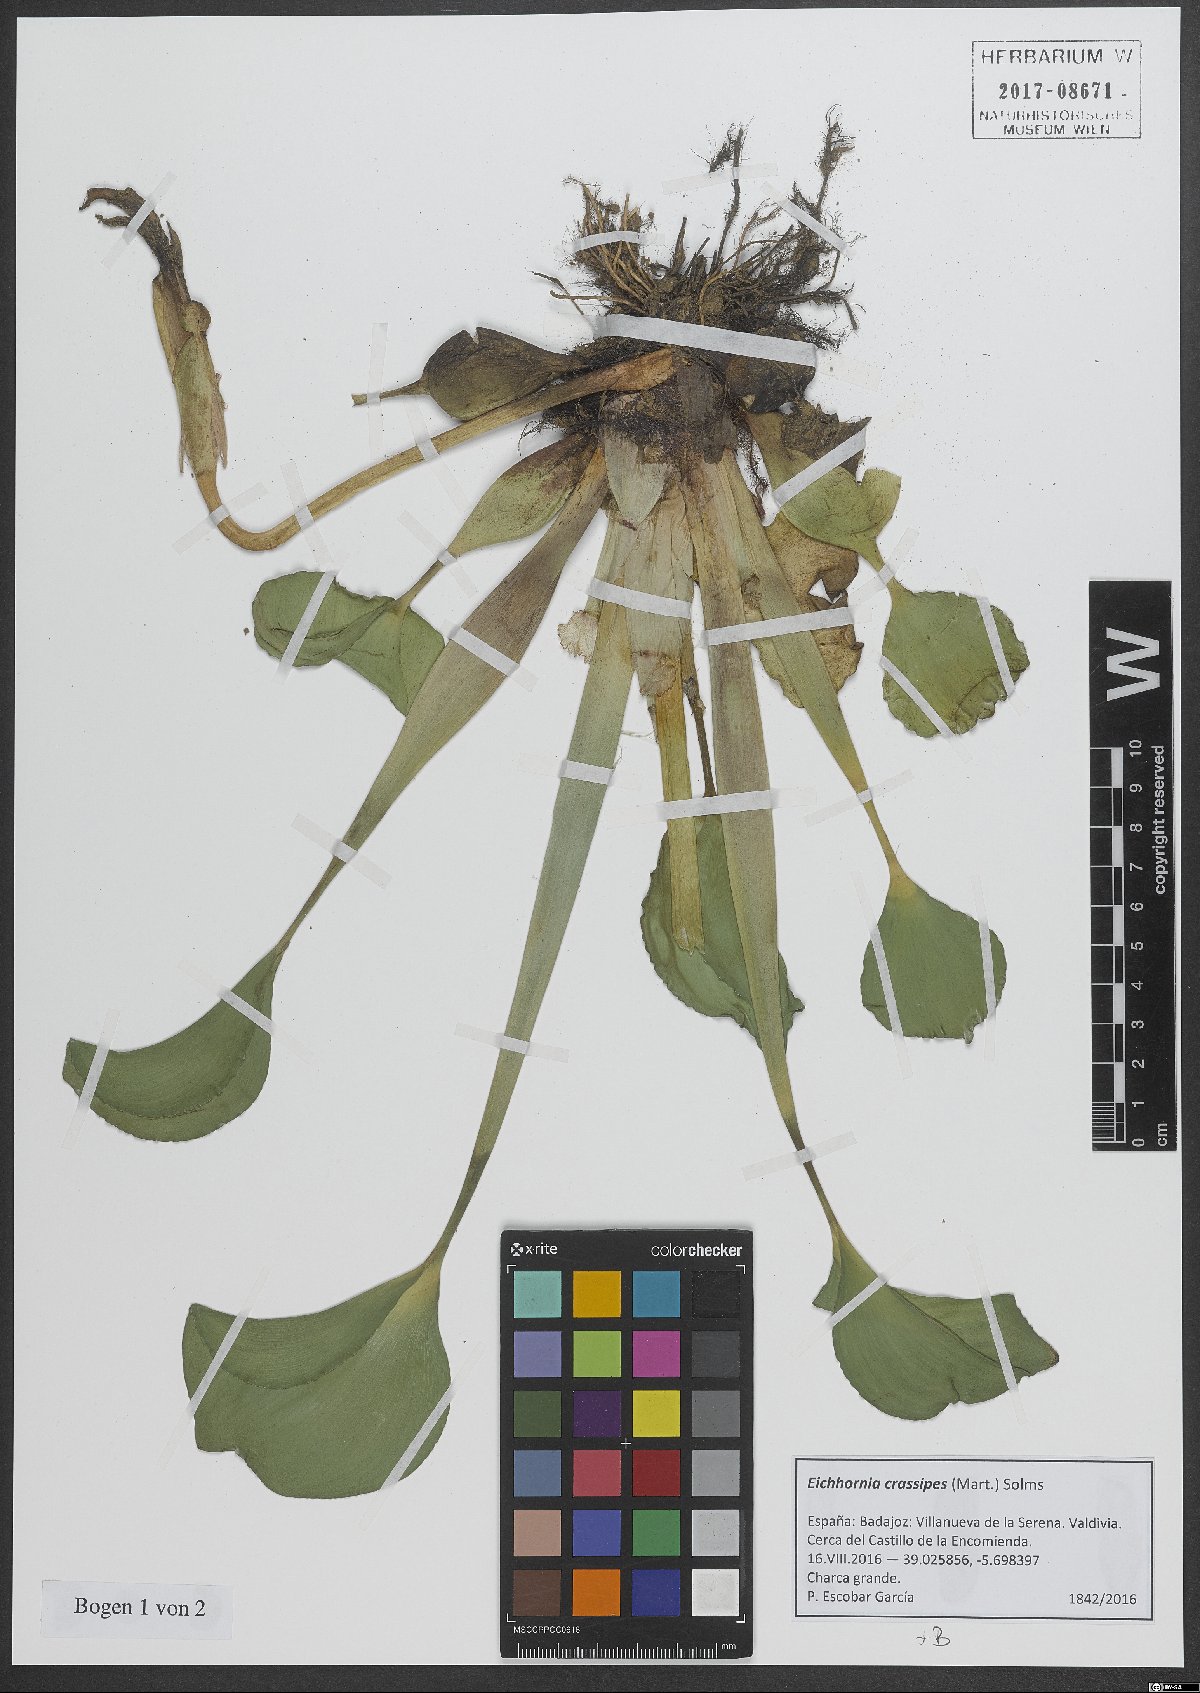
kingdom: Plantae
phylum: Tracheophyta
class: Liliopsida
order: Commelinales
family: Pontederiaceae
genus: Pontederia
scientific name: Pontederia crassipes
